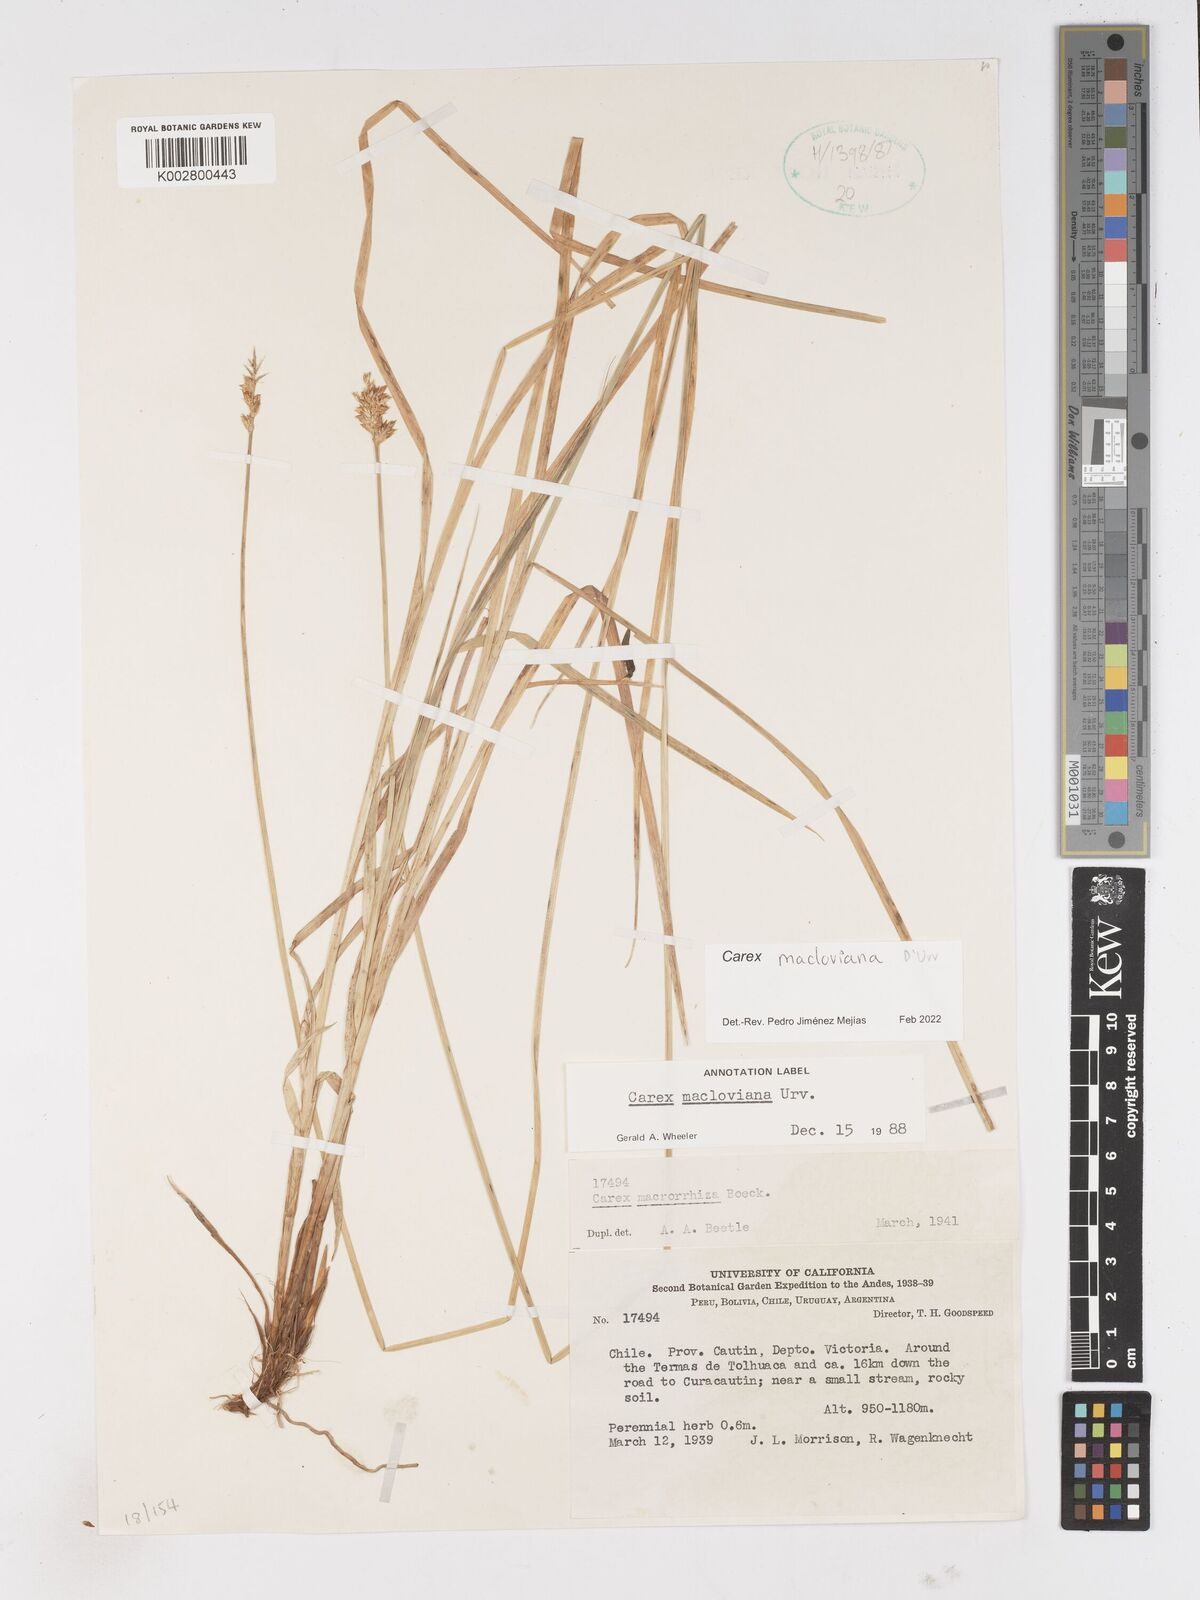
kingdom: Plantae
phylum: Tracheophyta
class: Liliopsida
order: Poales
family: Cyperaceae
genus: Carex
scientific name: Carex subfusca
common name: Brown sedge
